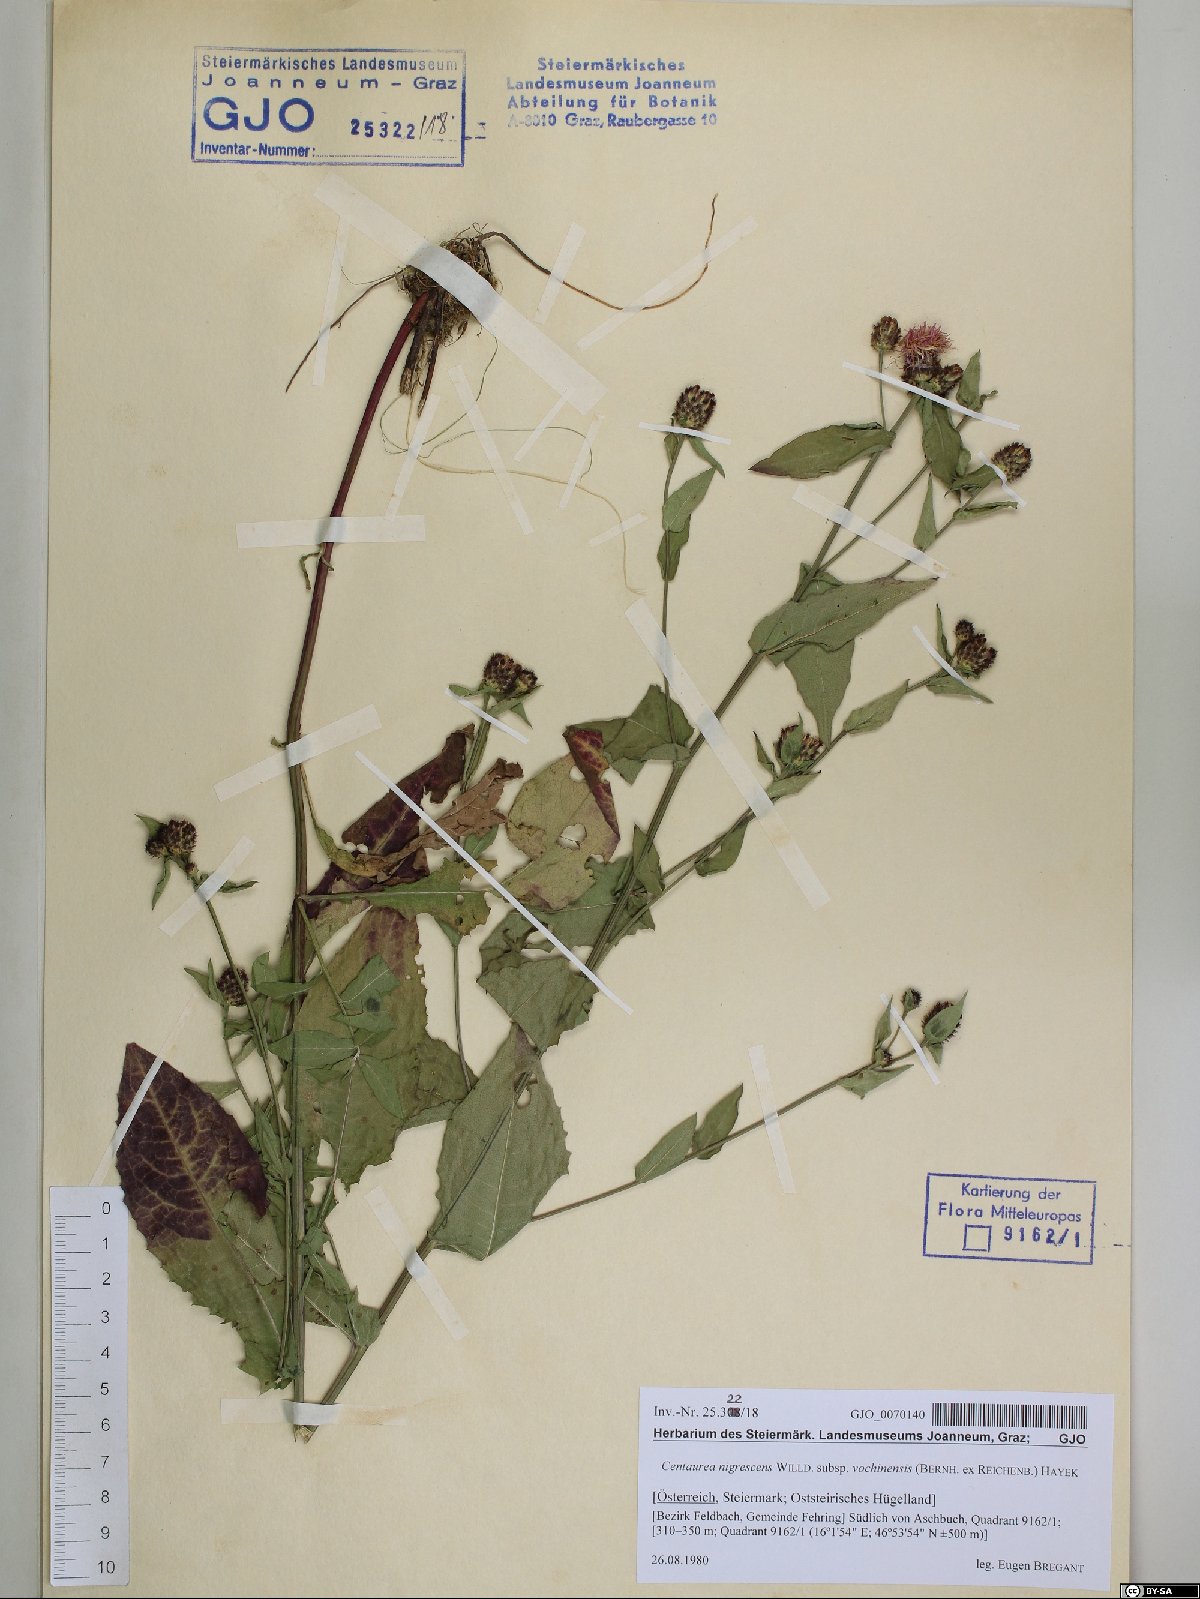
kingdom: Plantae
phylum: Tracheophyta
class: Magnoliopsida
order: Asterales
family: Asteraceae
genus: Centaurea
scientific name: Centaurea carniolica
